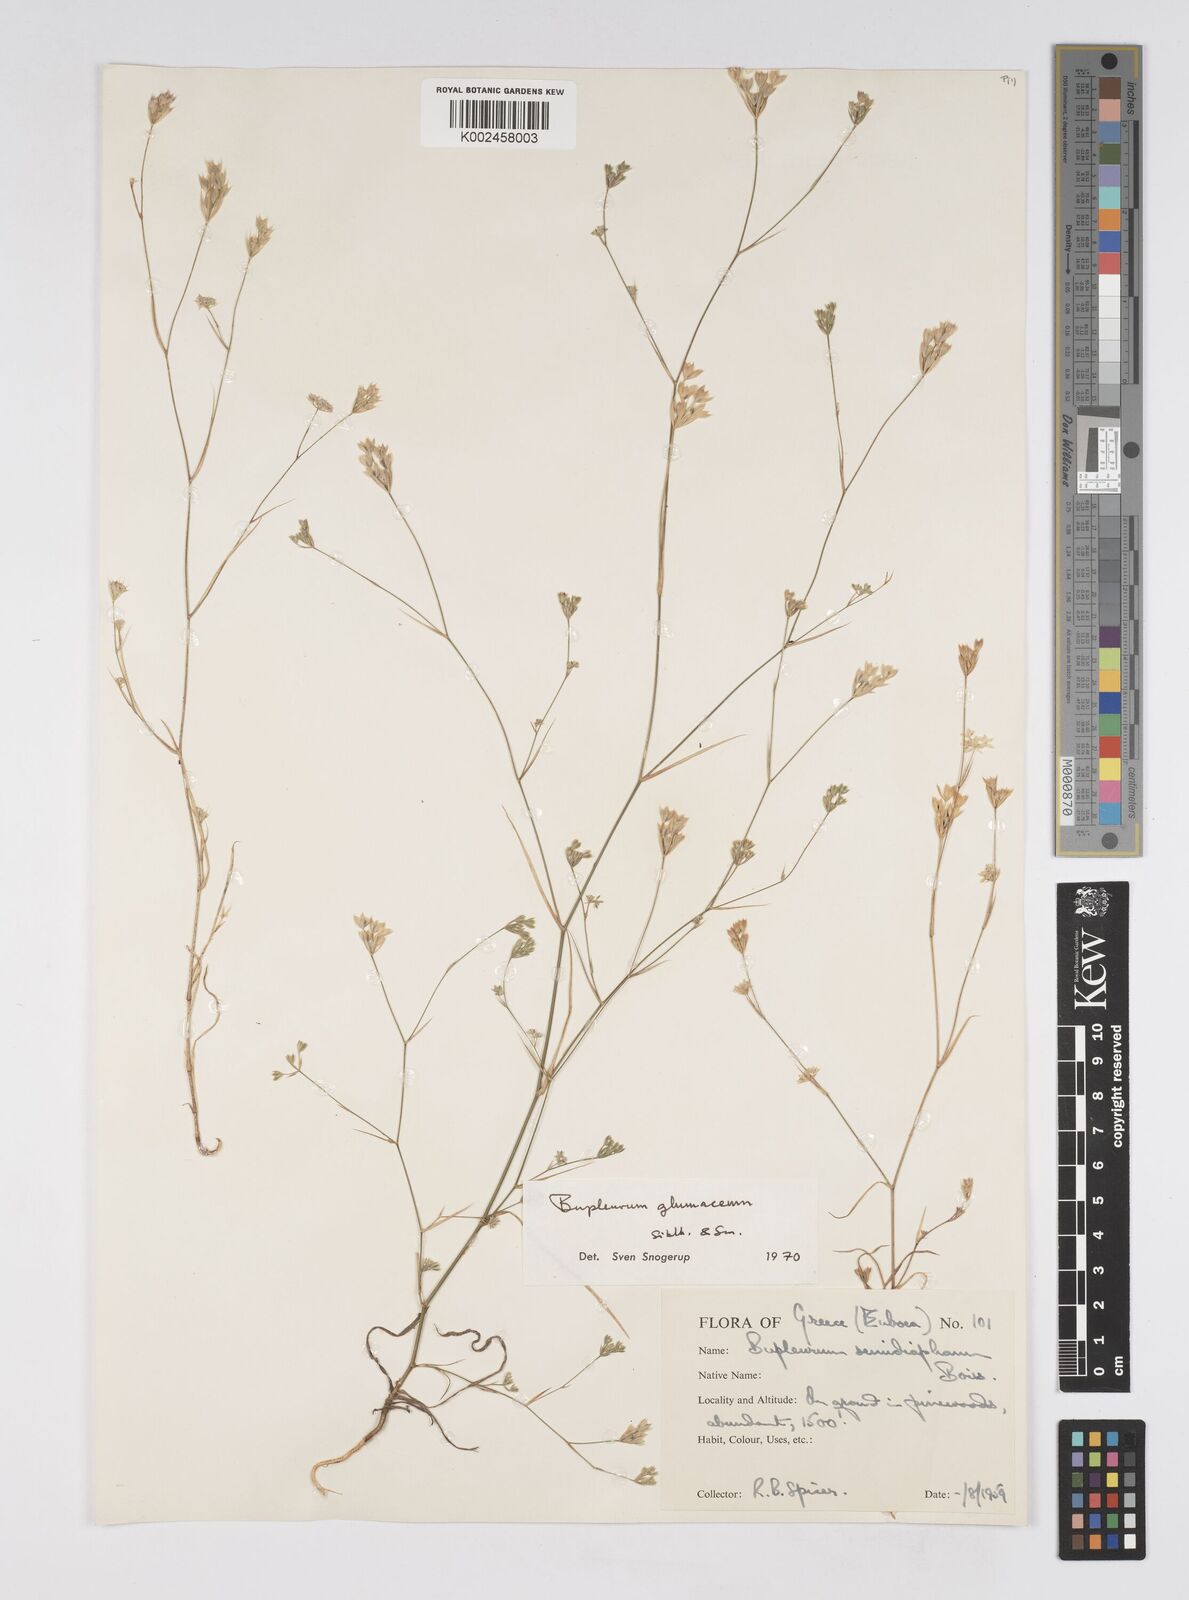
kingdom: Plantae
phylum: Tracheophyta
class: Magnoliopsida
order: Apiales
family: Apiaceae
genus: Bupleurum
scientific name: Bupleurum glumaceum
